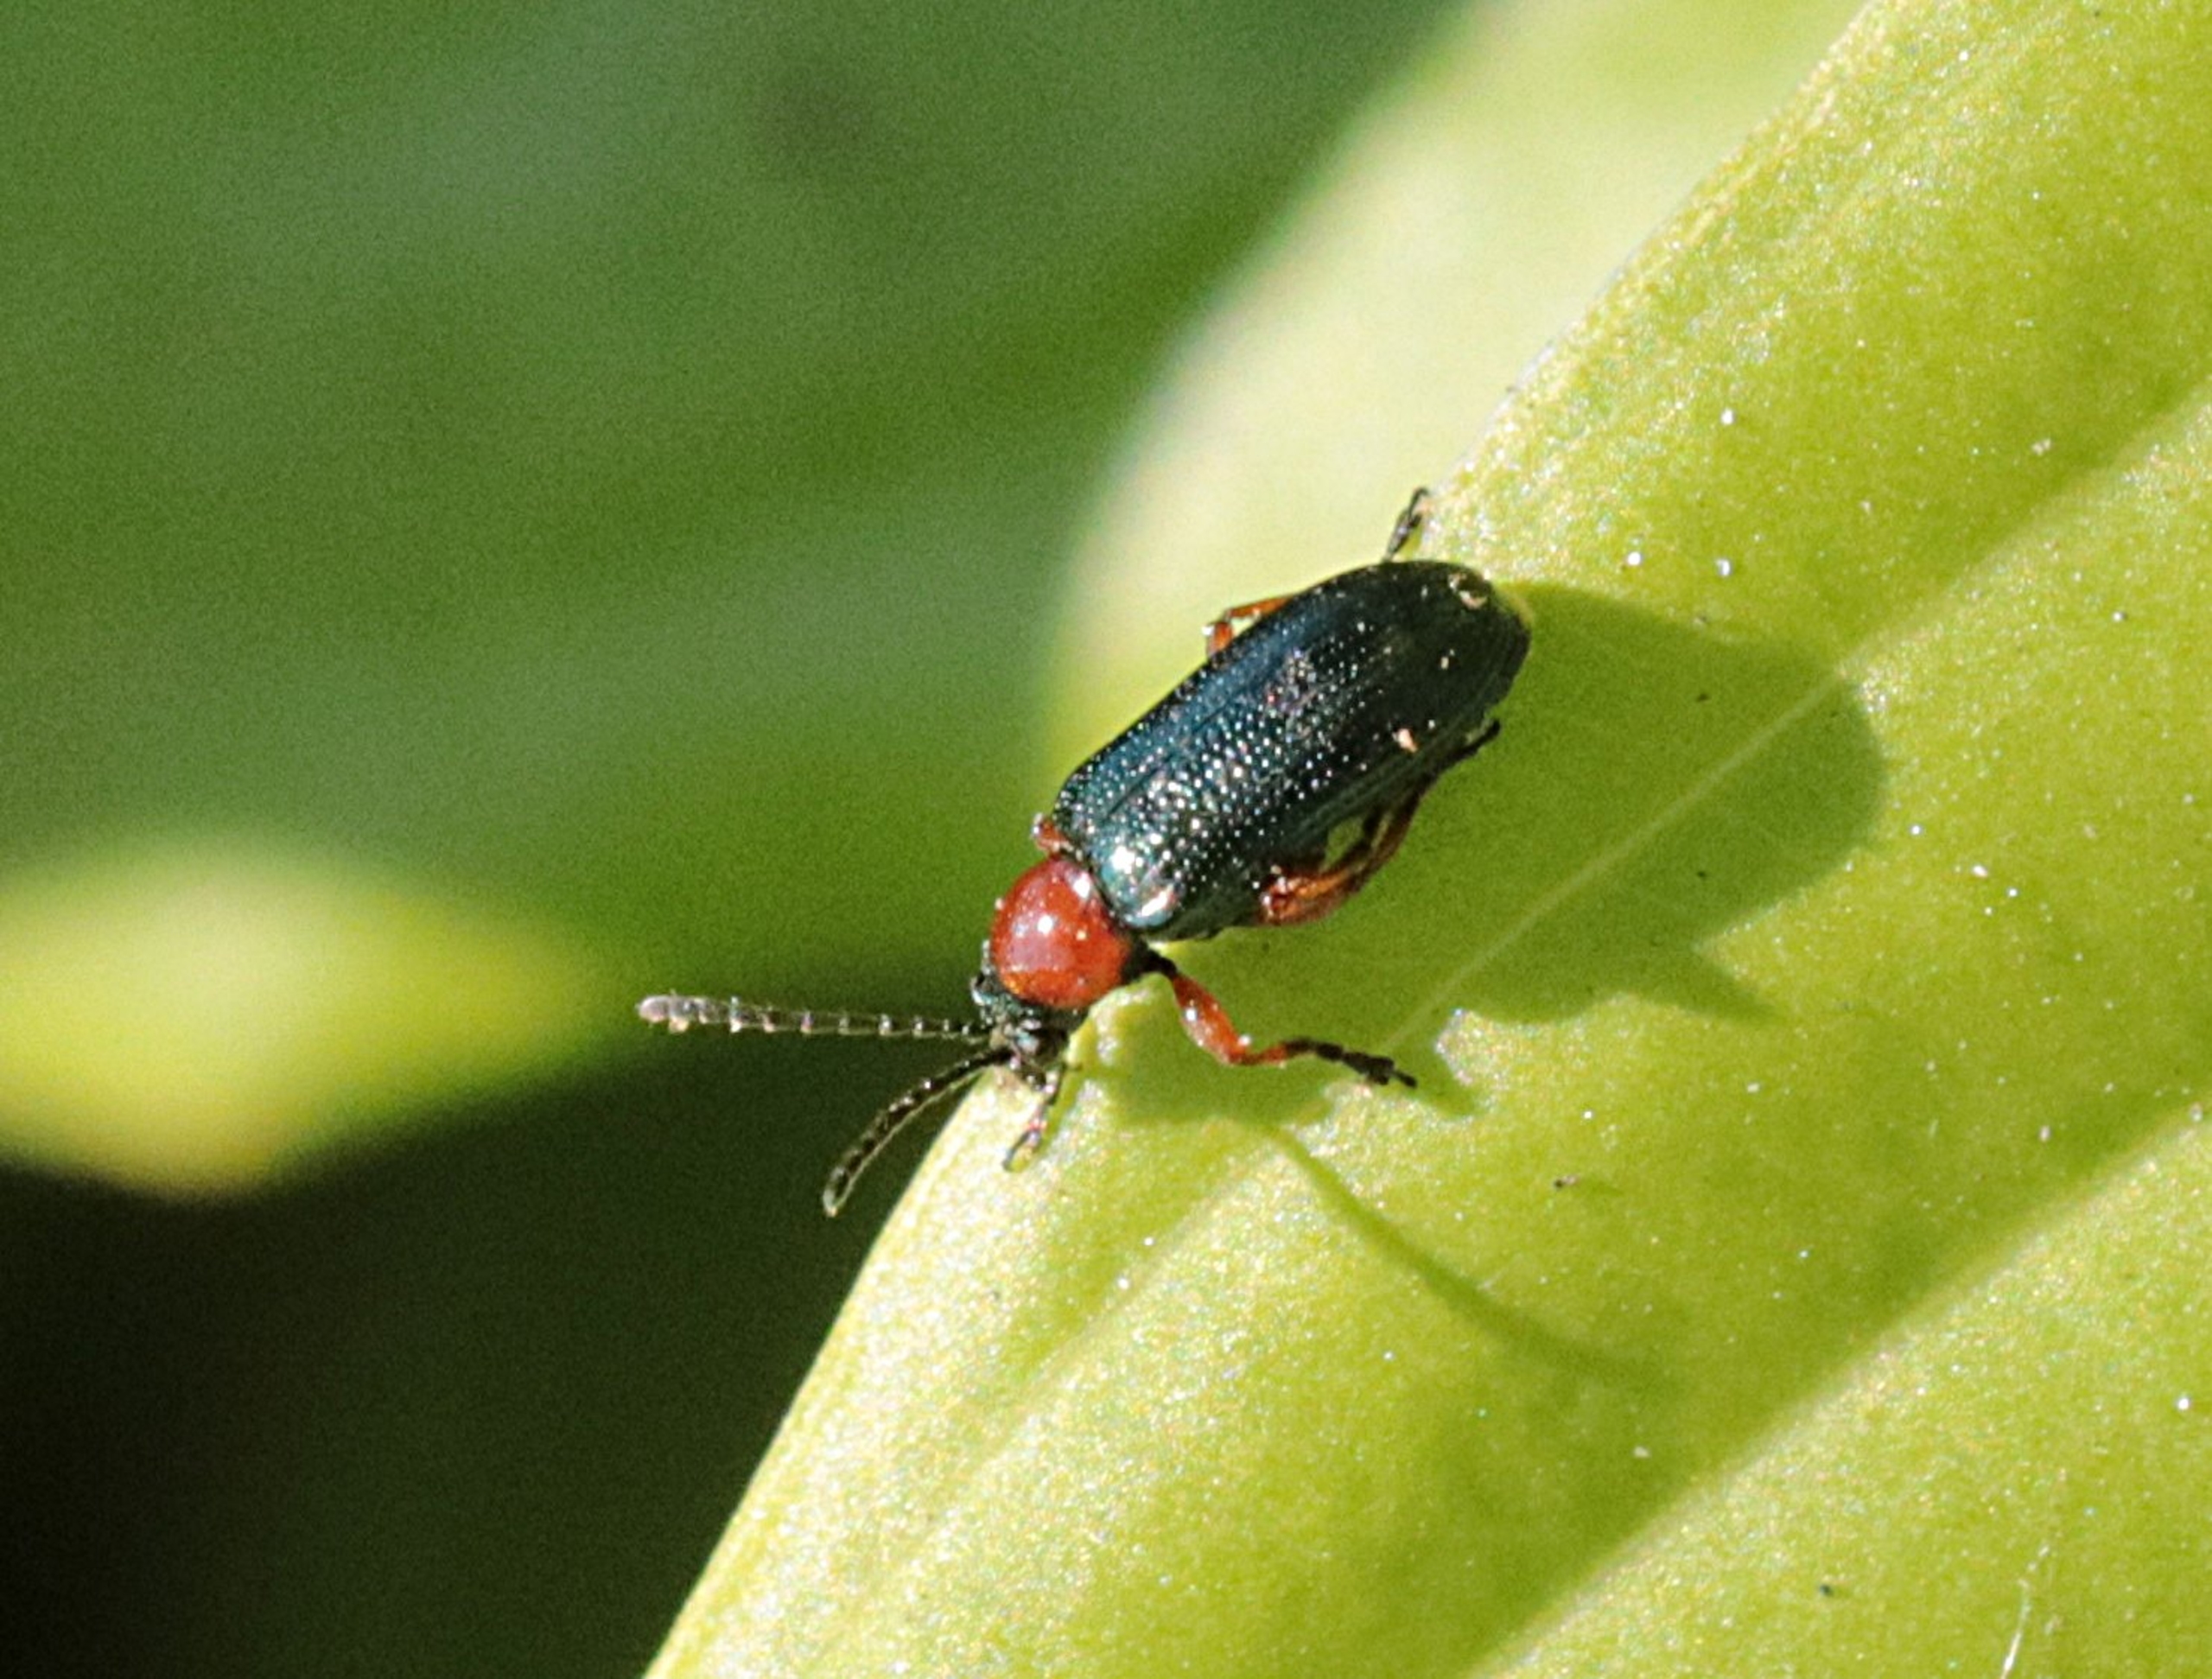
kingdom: Animalia
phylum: Arthropoda
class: Insecta
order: Coleoptera
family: Chrysomelidae
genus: Oulema
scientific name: Oulema
